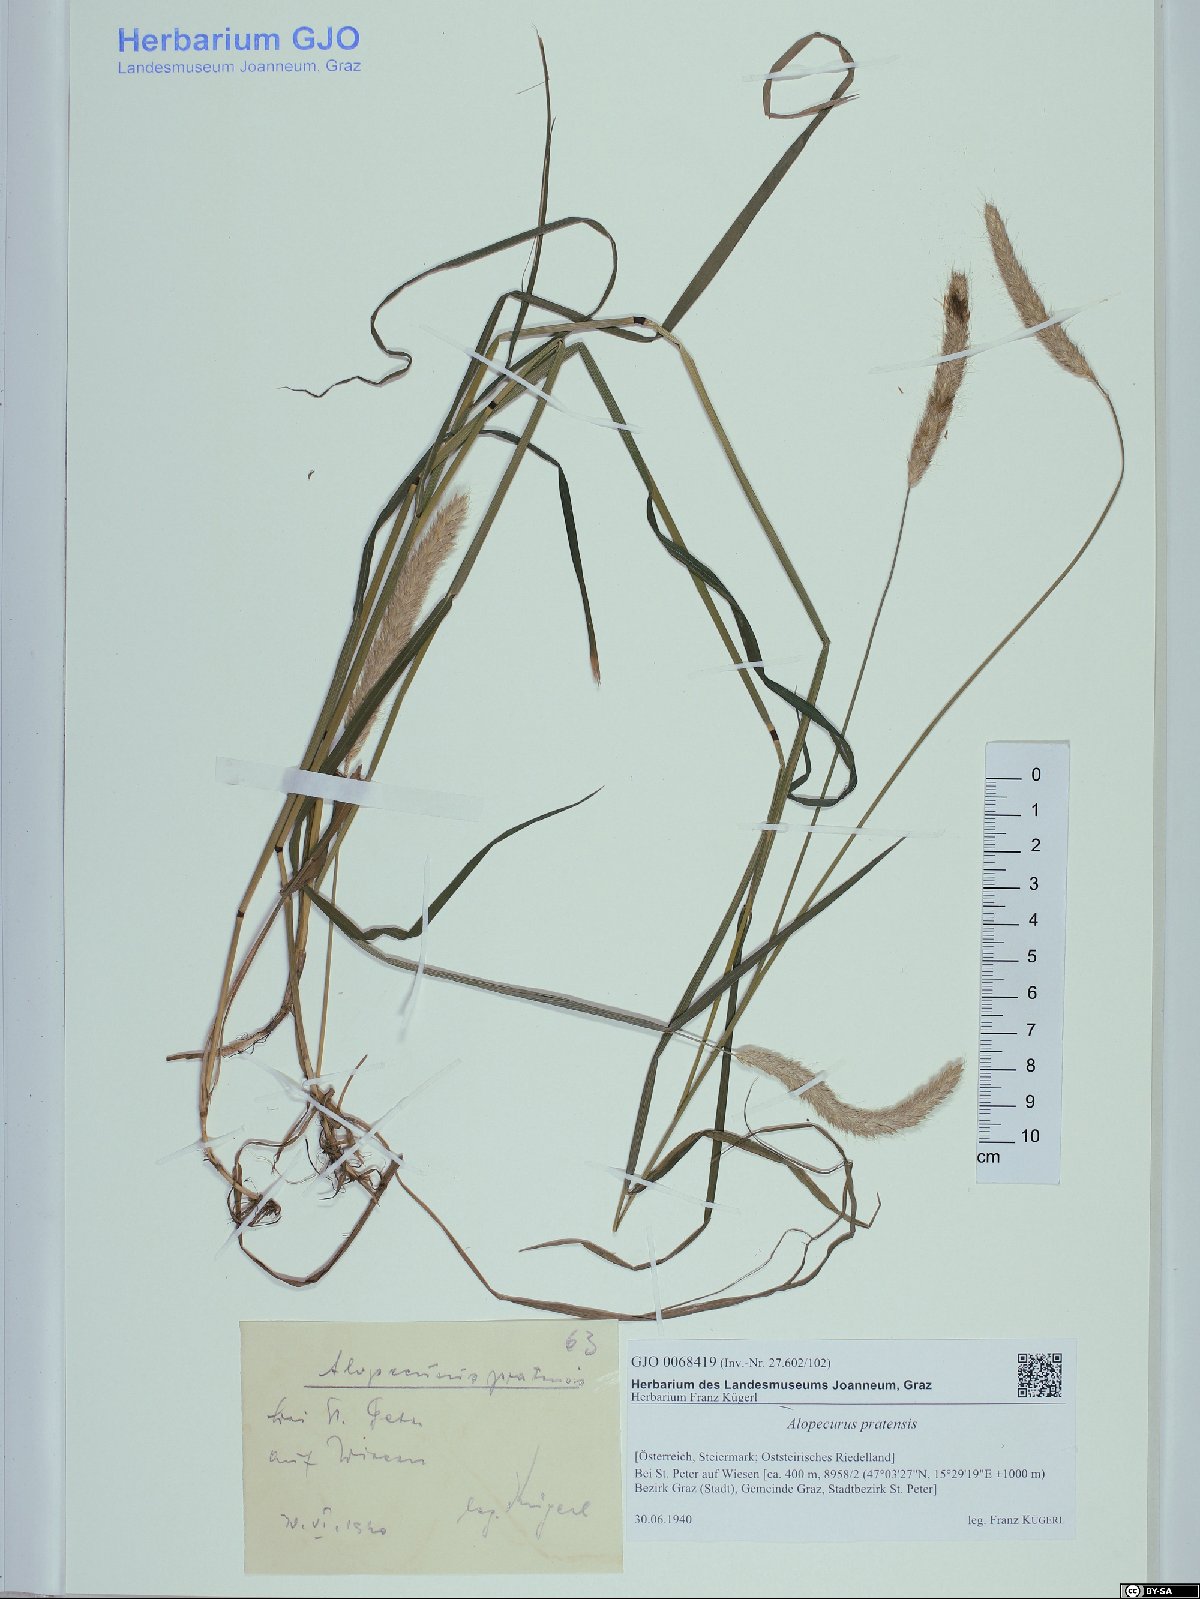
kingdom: Plantae
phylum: Tracheophyta
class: Liliopsida
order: Poales
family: Poaceae
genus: Alopecurus
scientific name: Alopecurus pratensis
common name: Meadow foxtail
